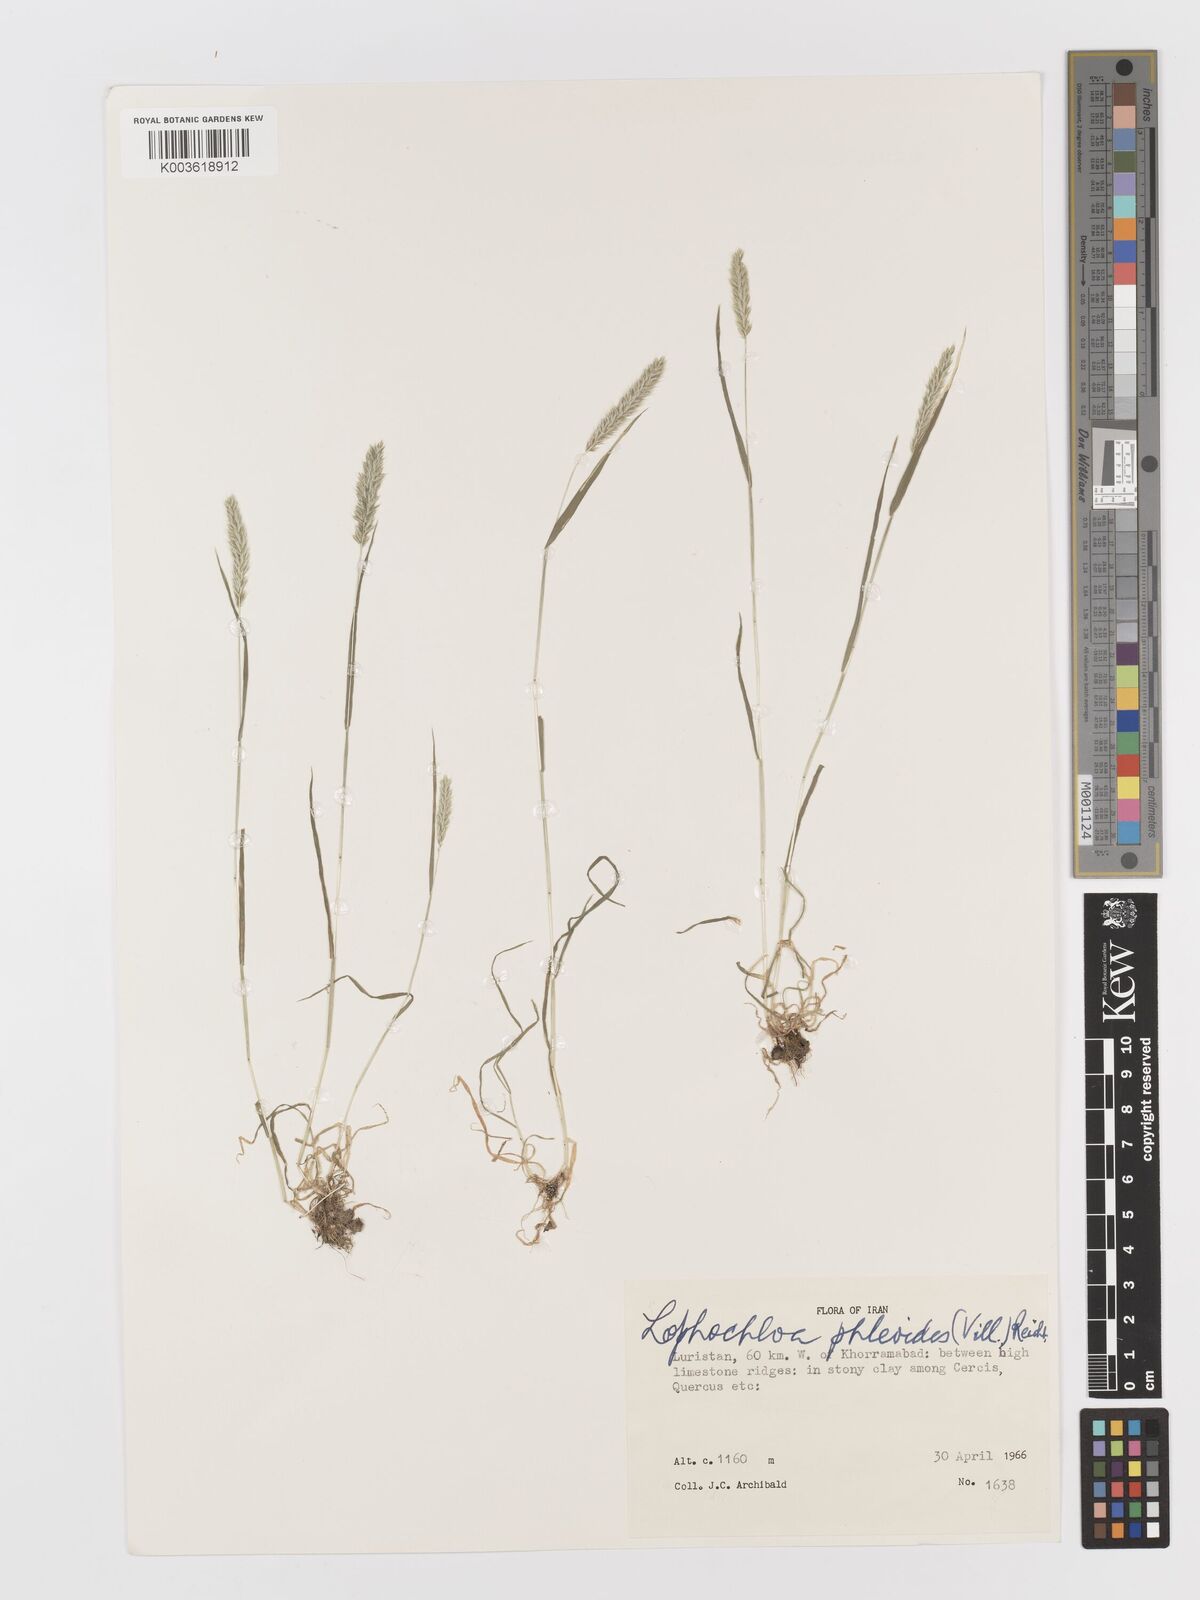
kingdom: Plantae
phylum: Tracheophyta
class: Liliopsida
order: Poales
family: Poaceae
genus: Rostraria
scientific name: Rostraria cristata
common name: Mediterranean hair-grass
